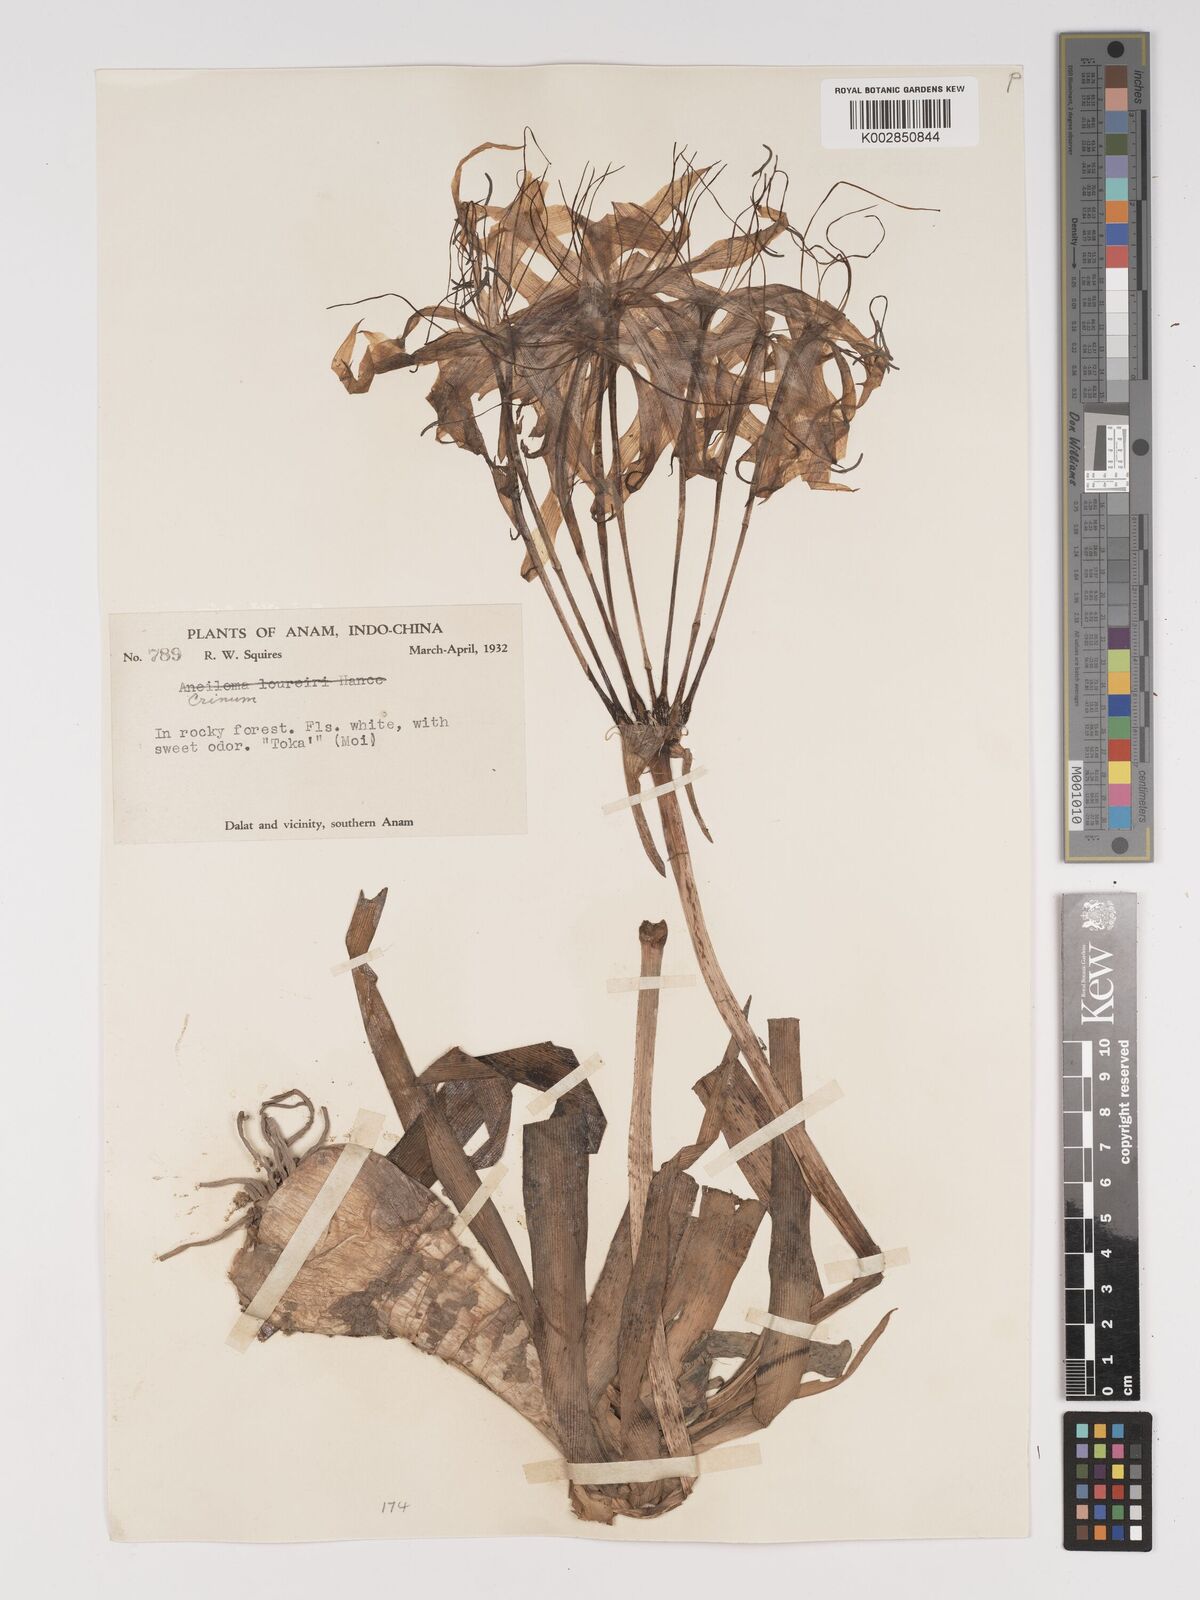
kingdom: Plantae
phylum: Tracheophyta
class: Liliopsida
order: Asparagales
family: Amaryllidaceae
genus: Crinum
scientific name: Crinum
